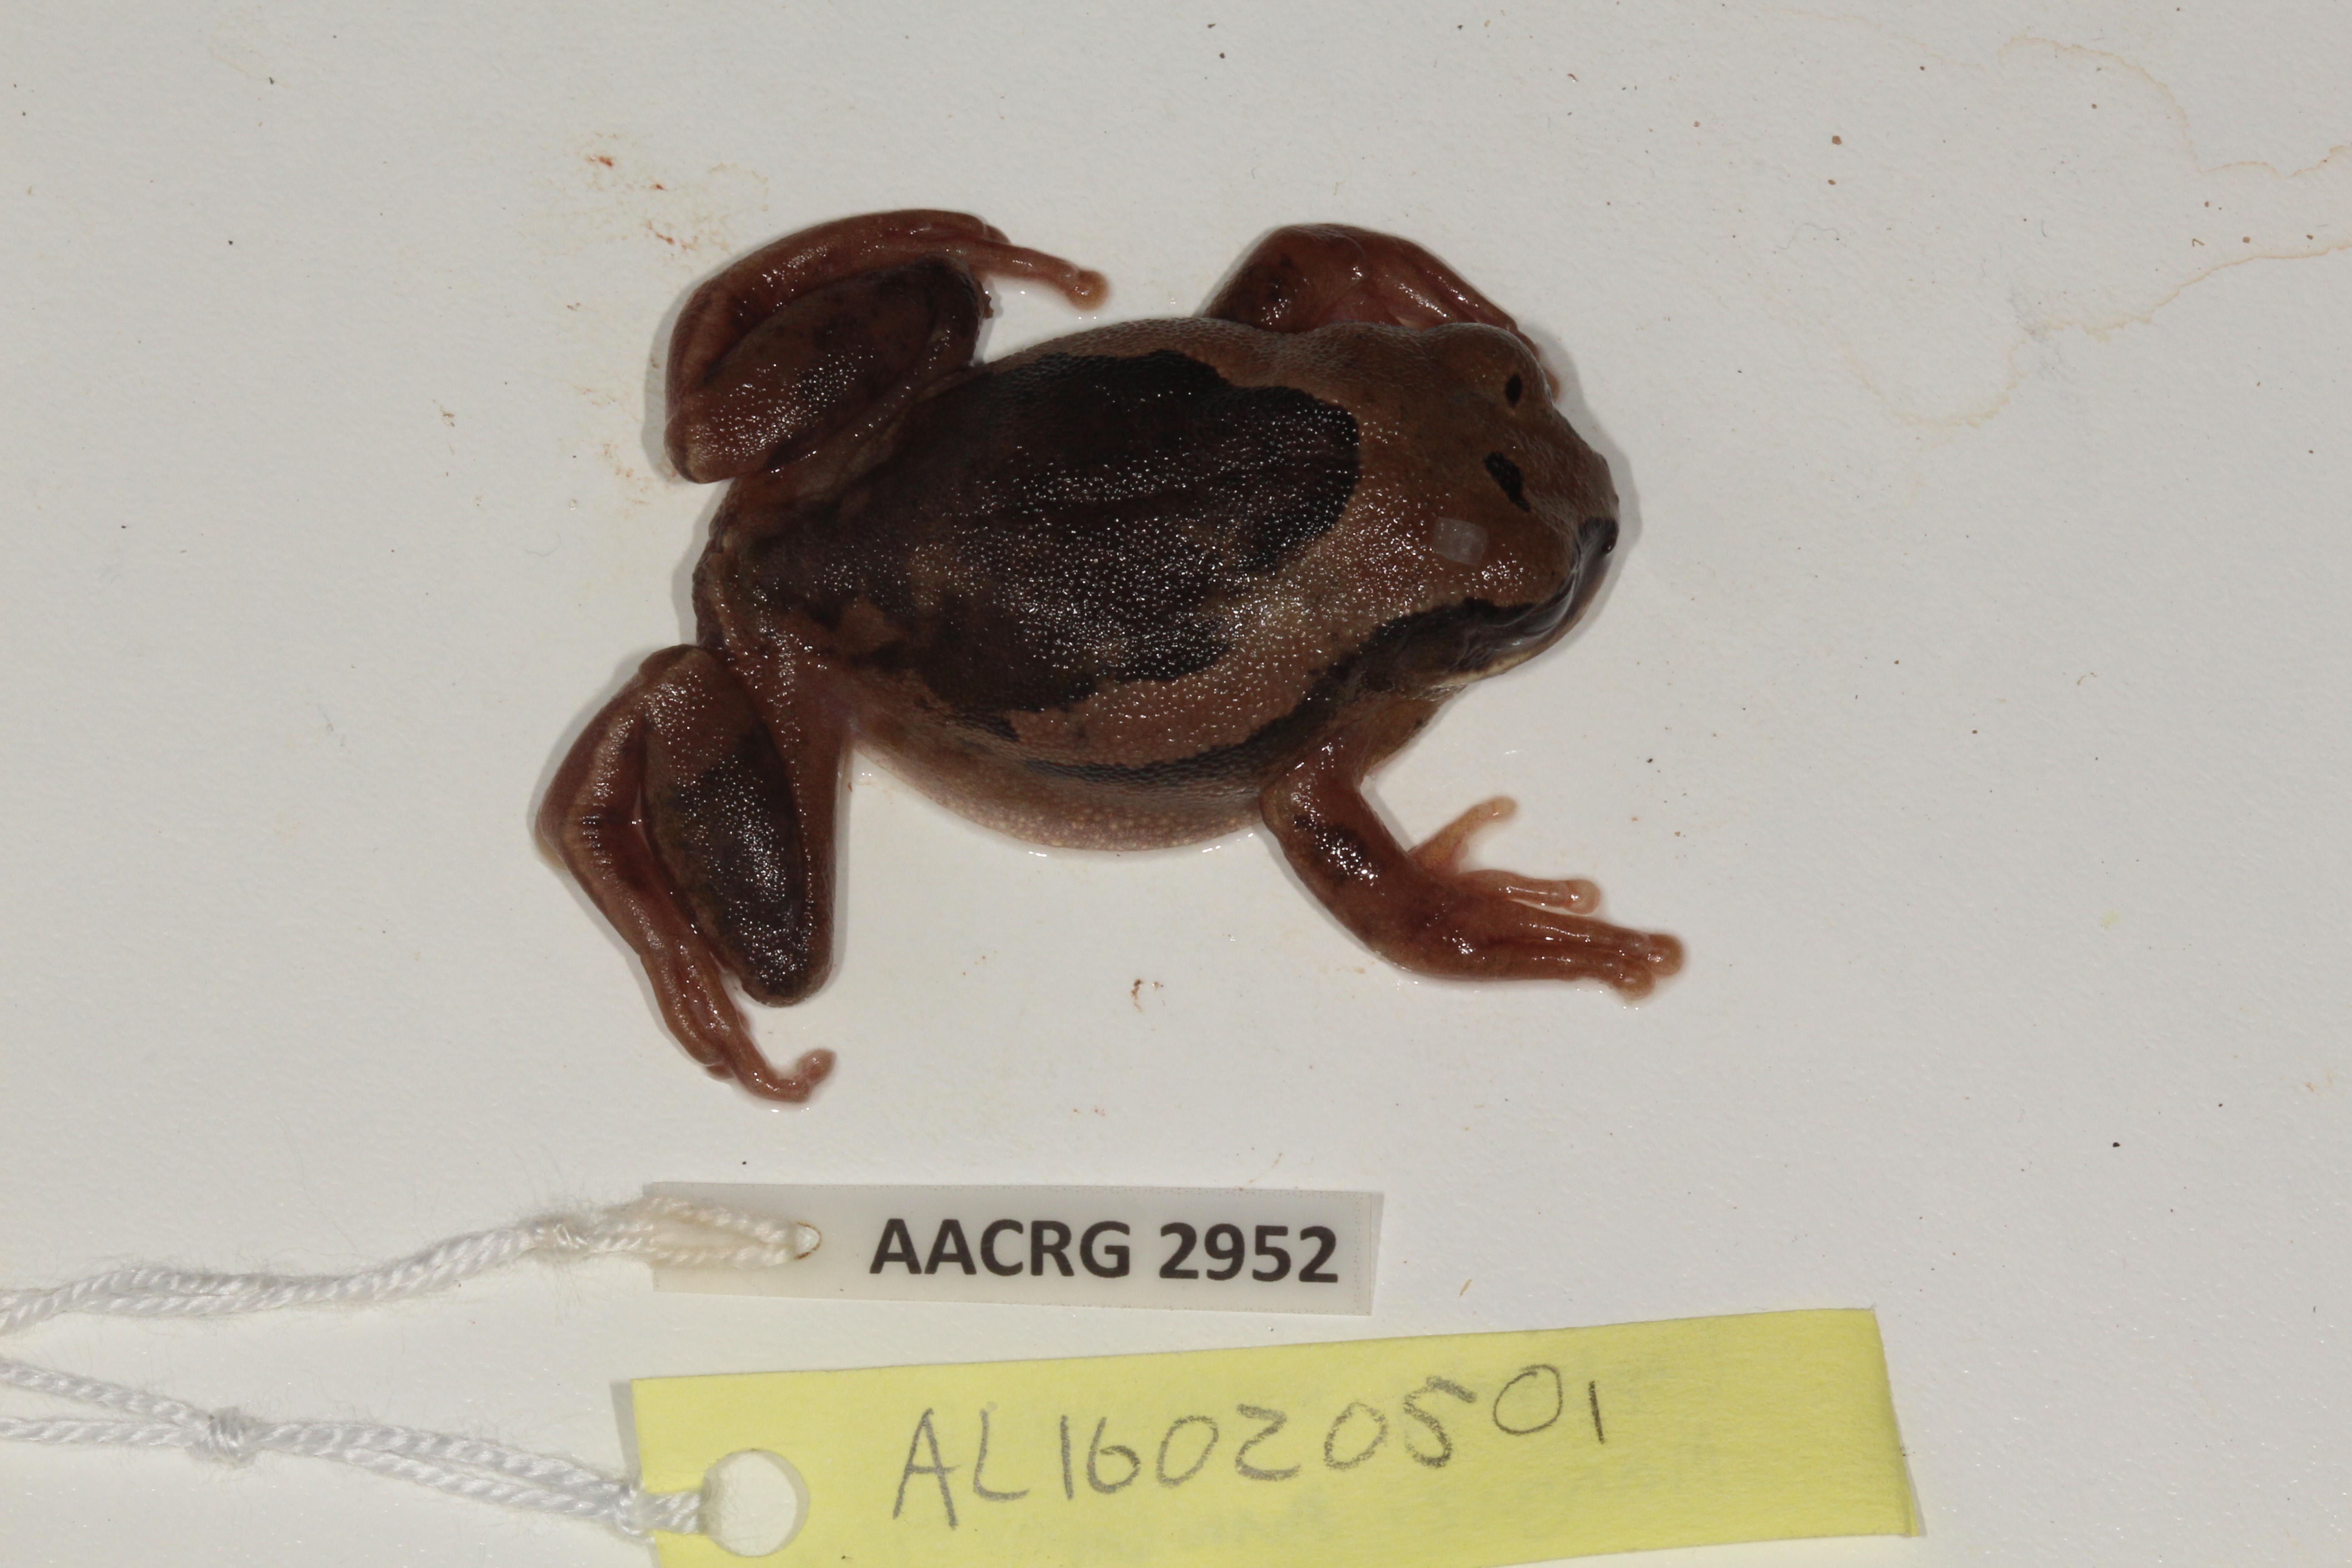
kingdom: Animalia
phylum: Chordata
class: Amphibia
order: Anura
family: Arthroleptidae
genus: Leptopelis
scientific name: Leptopelis mossambicus
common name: Mozambique tree frog
